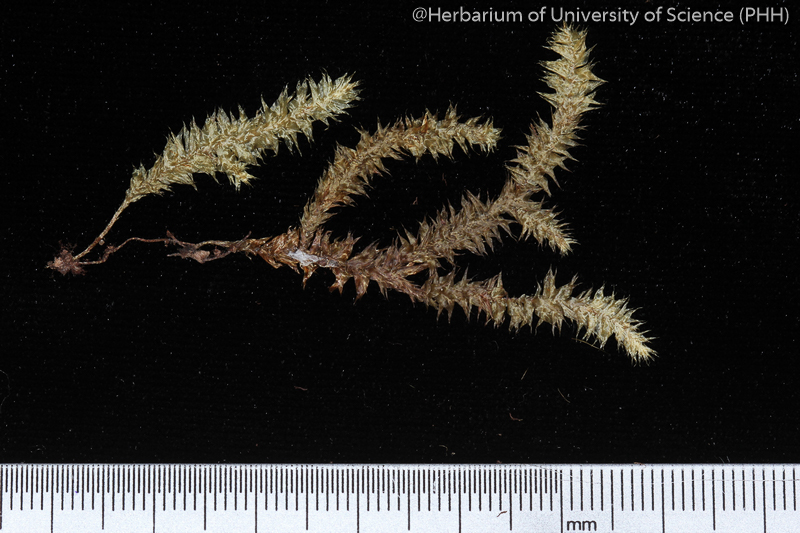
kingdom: Plantae
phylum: Bryophyta
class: Bryopsida
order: Hypnales
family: Pterobryaceae
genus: Endotrichella
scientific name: Endotrichella
